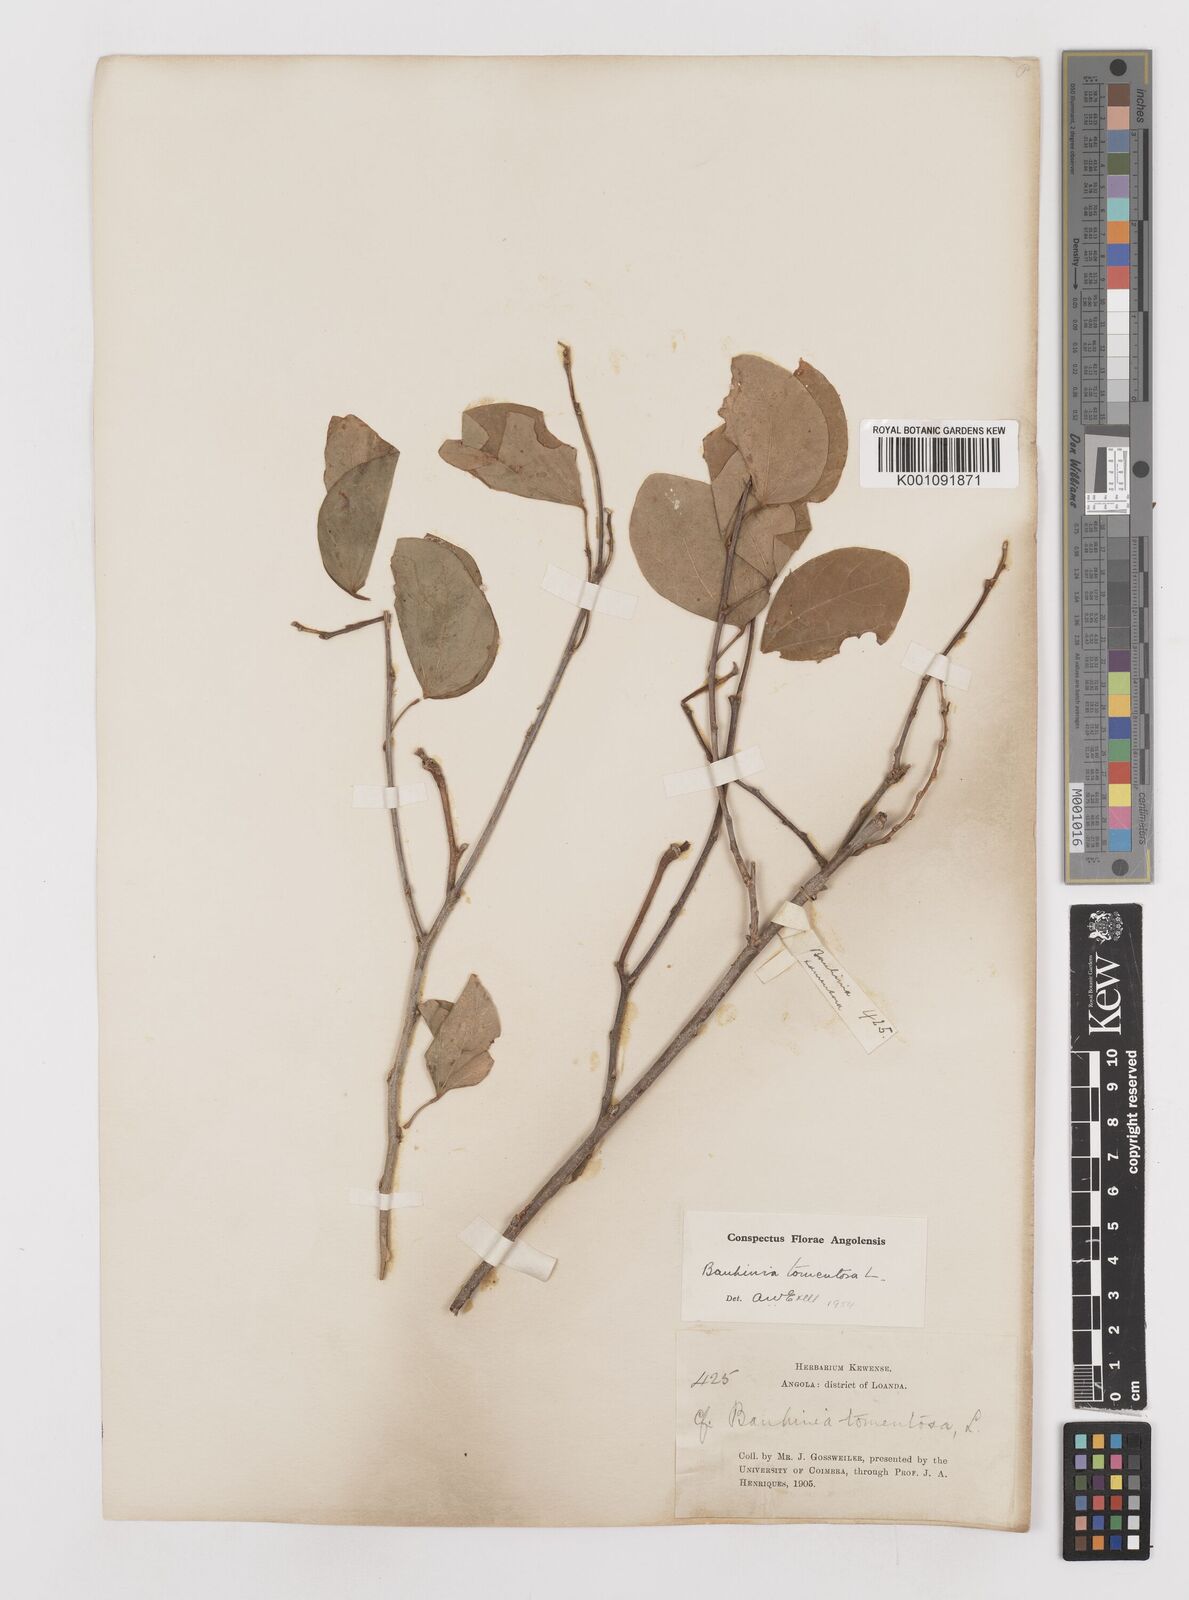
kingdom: Plantae
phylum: Tracheophyta
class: Magnoliopsida
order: Fabales
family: Fabaceae
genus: Bauhinia
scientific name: Bauhinia tomentosa
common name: Bell bauhinia
